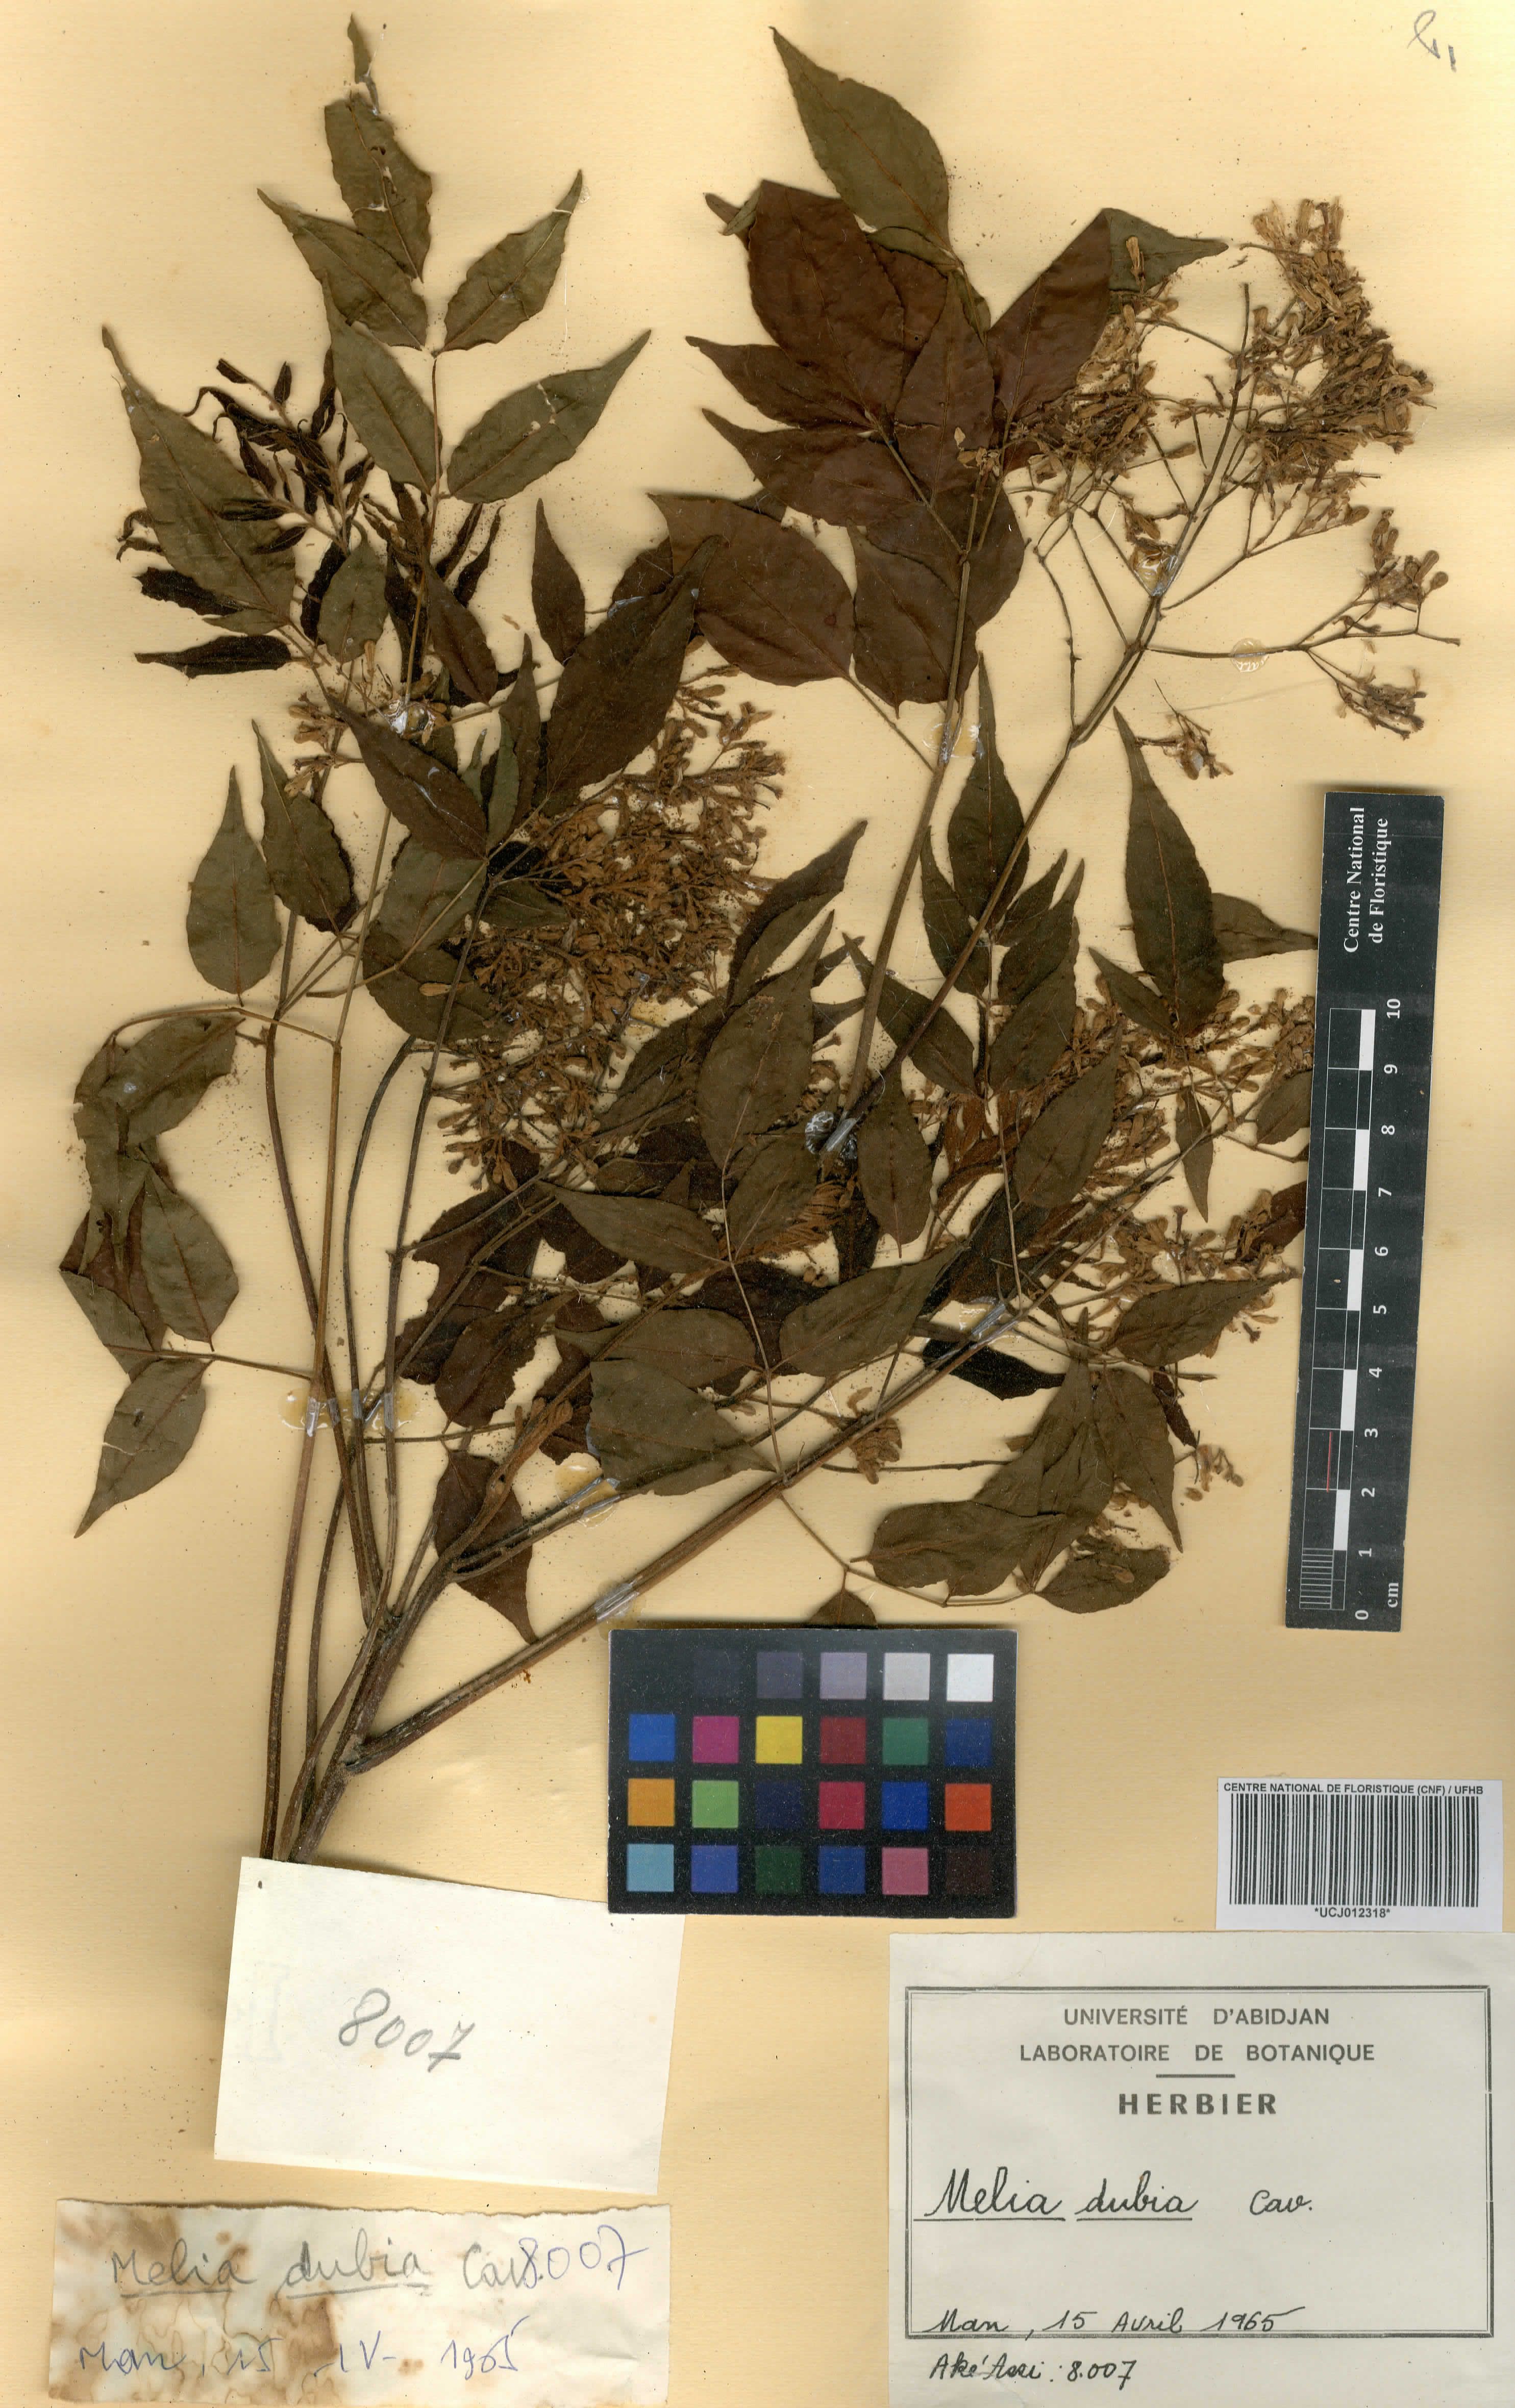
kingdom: Plantae
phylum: Tracheophyta
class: Magnoliopsida
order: Sapindales
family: Meliaceae
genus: Melia
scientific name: Melia azedarach
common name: Chinaberrytree
